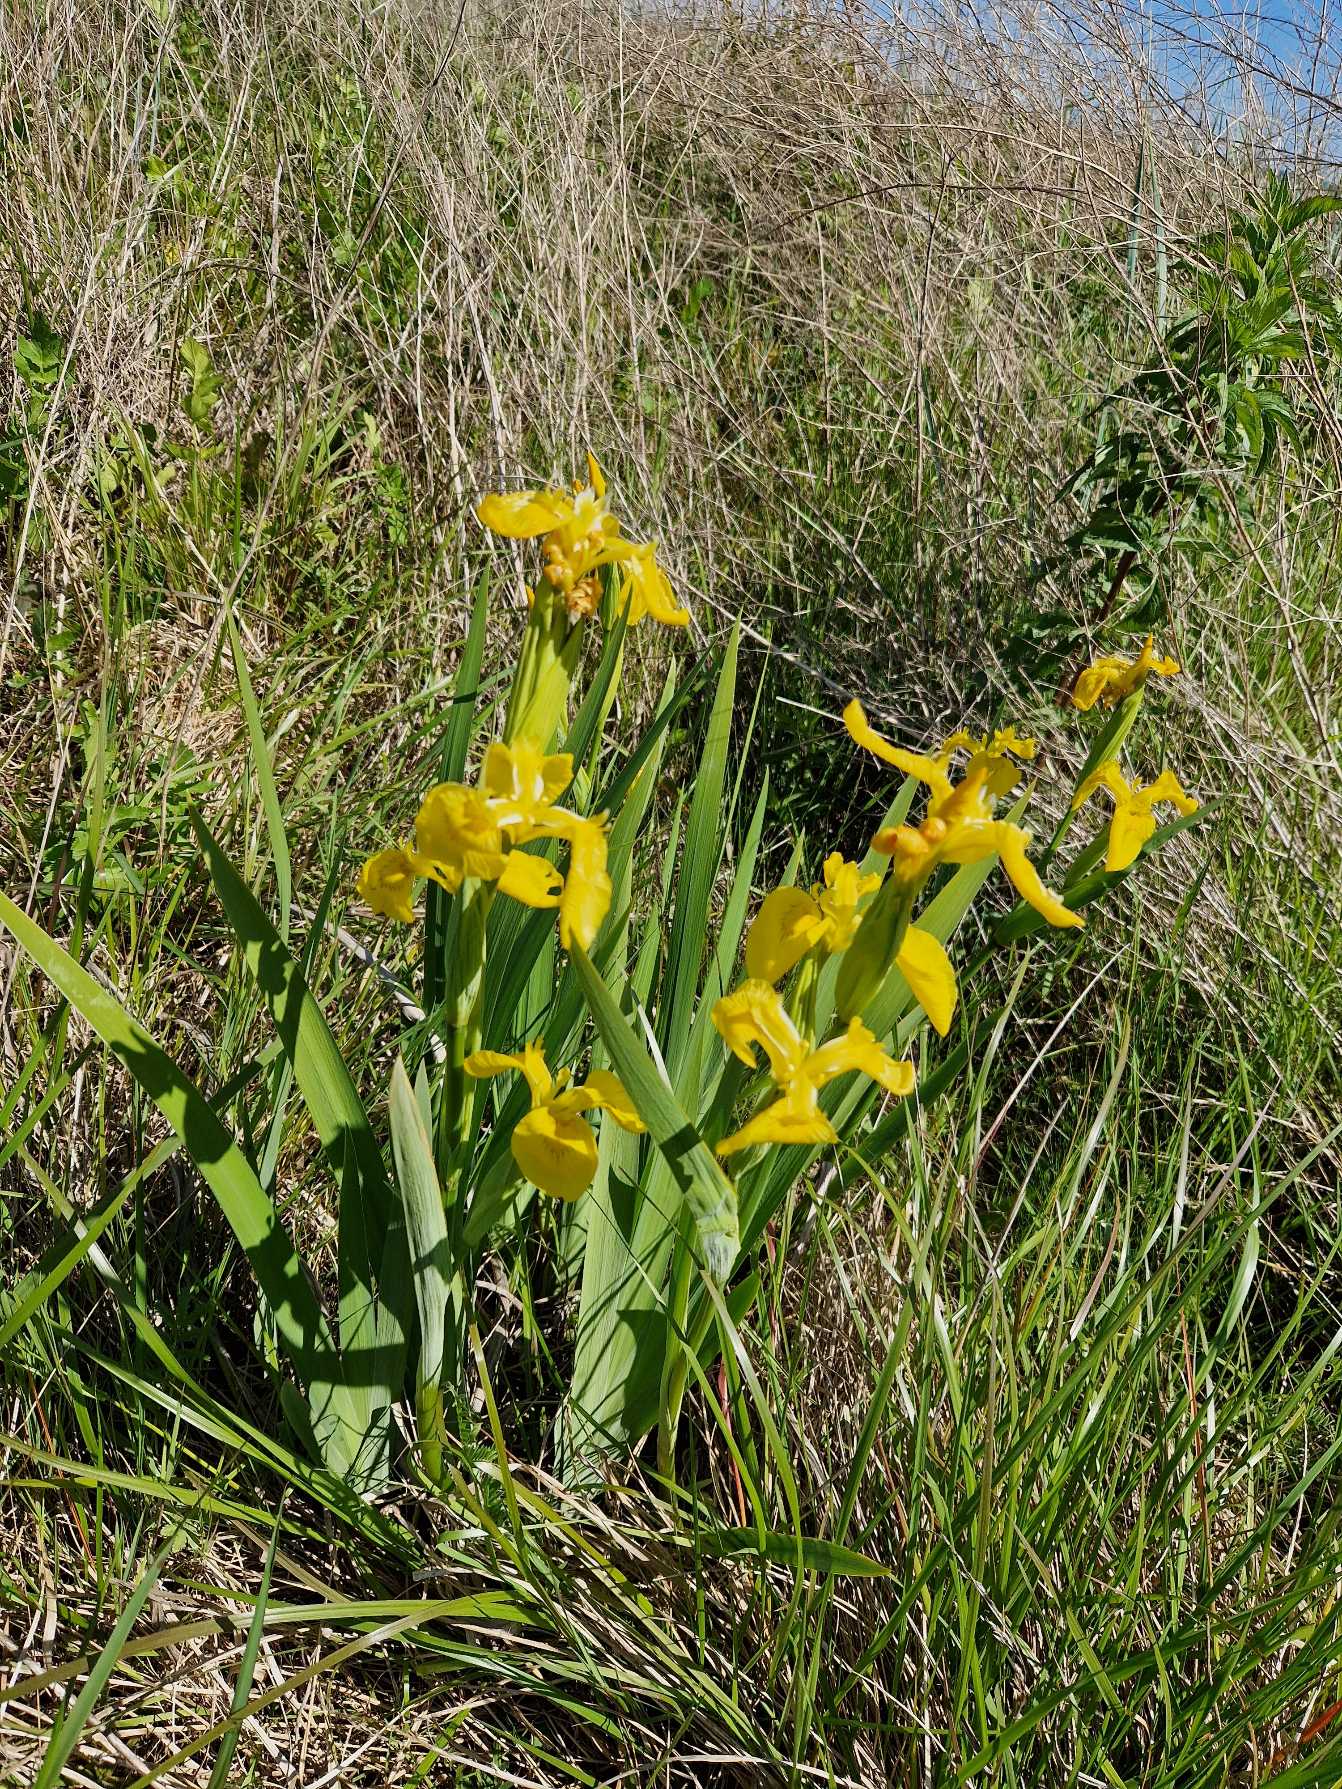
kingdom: Plantae
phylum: Tracheophyta
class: Liliopsida
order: Asparagales
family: Iridaceae
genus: Iris
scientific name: Iris pseudacorus
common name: Gul iris
